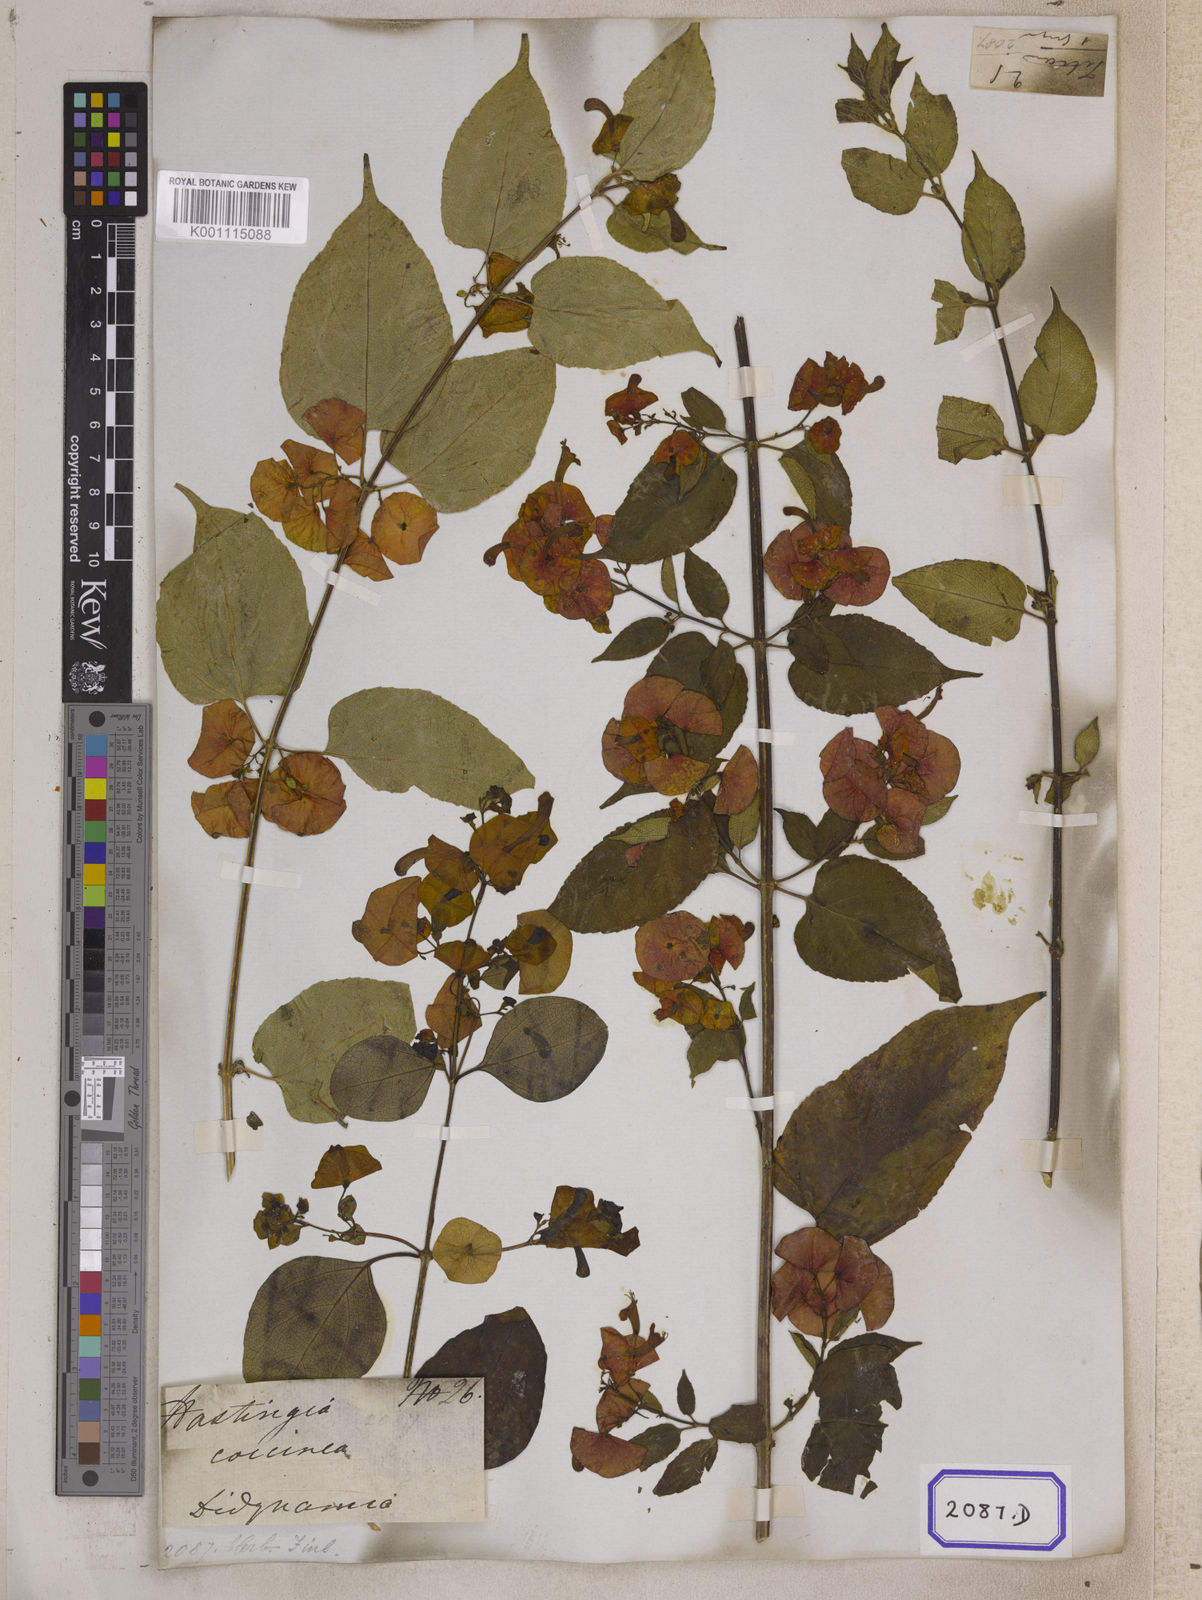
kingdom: Plantae
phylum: Tracheophyta
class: Magnoliopsida
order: Lamiales
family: Lamiaceae
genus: Holmskioldia
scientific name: Holmskioldia sanguinea
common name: Chinese hatplant
